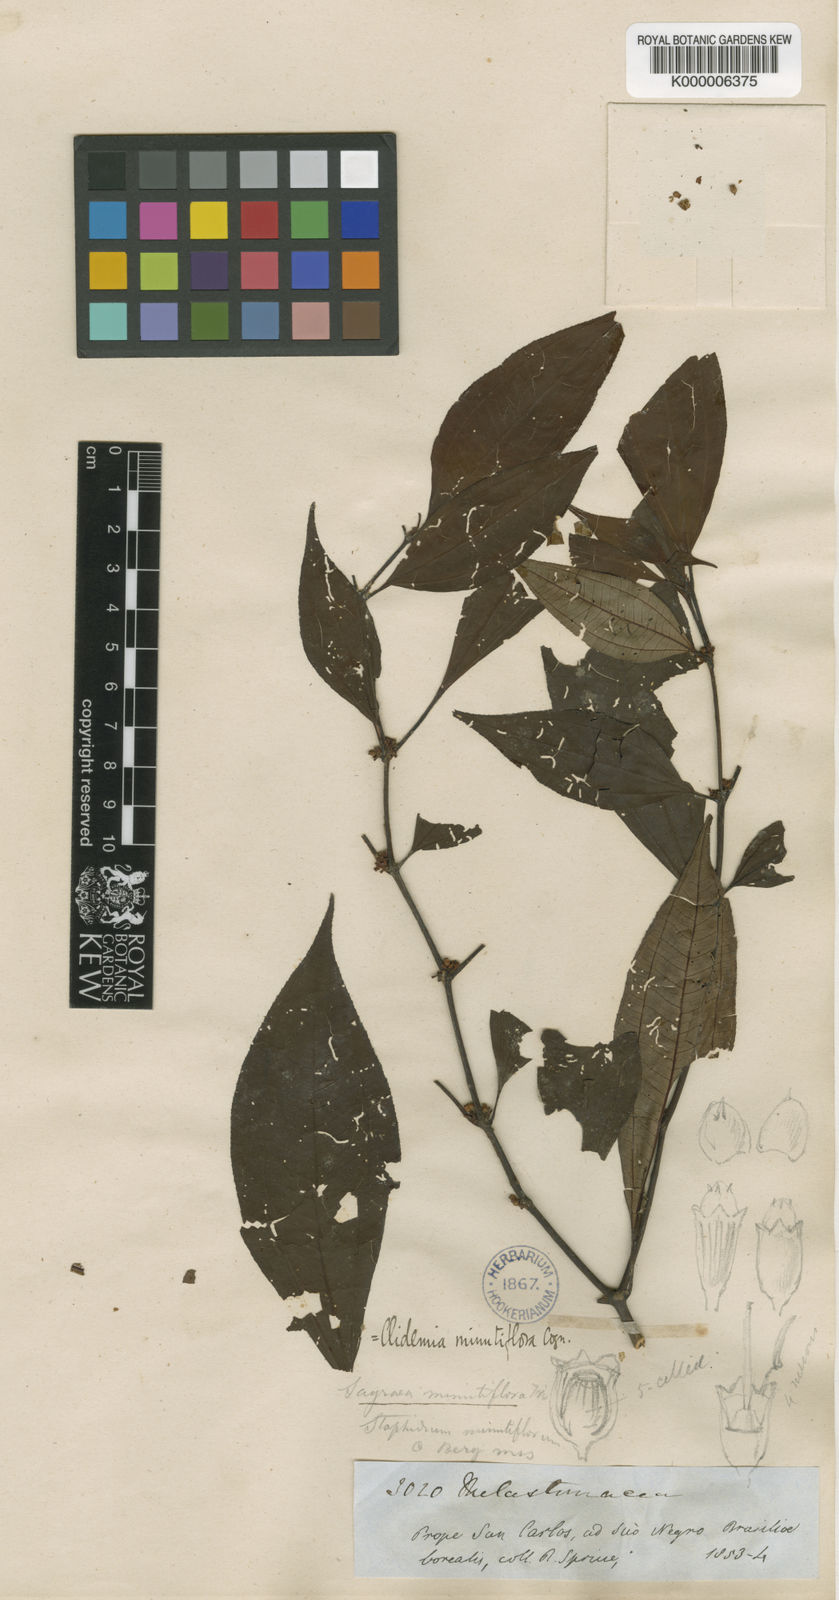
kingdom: Plantae
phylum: Tracheophyta
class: Magnoliopsida
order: Myrtales
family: Melastomataceae
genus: Miconia
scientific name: Miconia minutiflora
